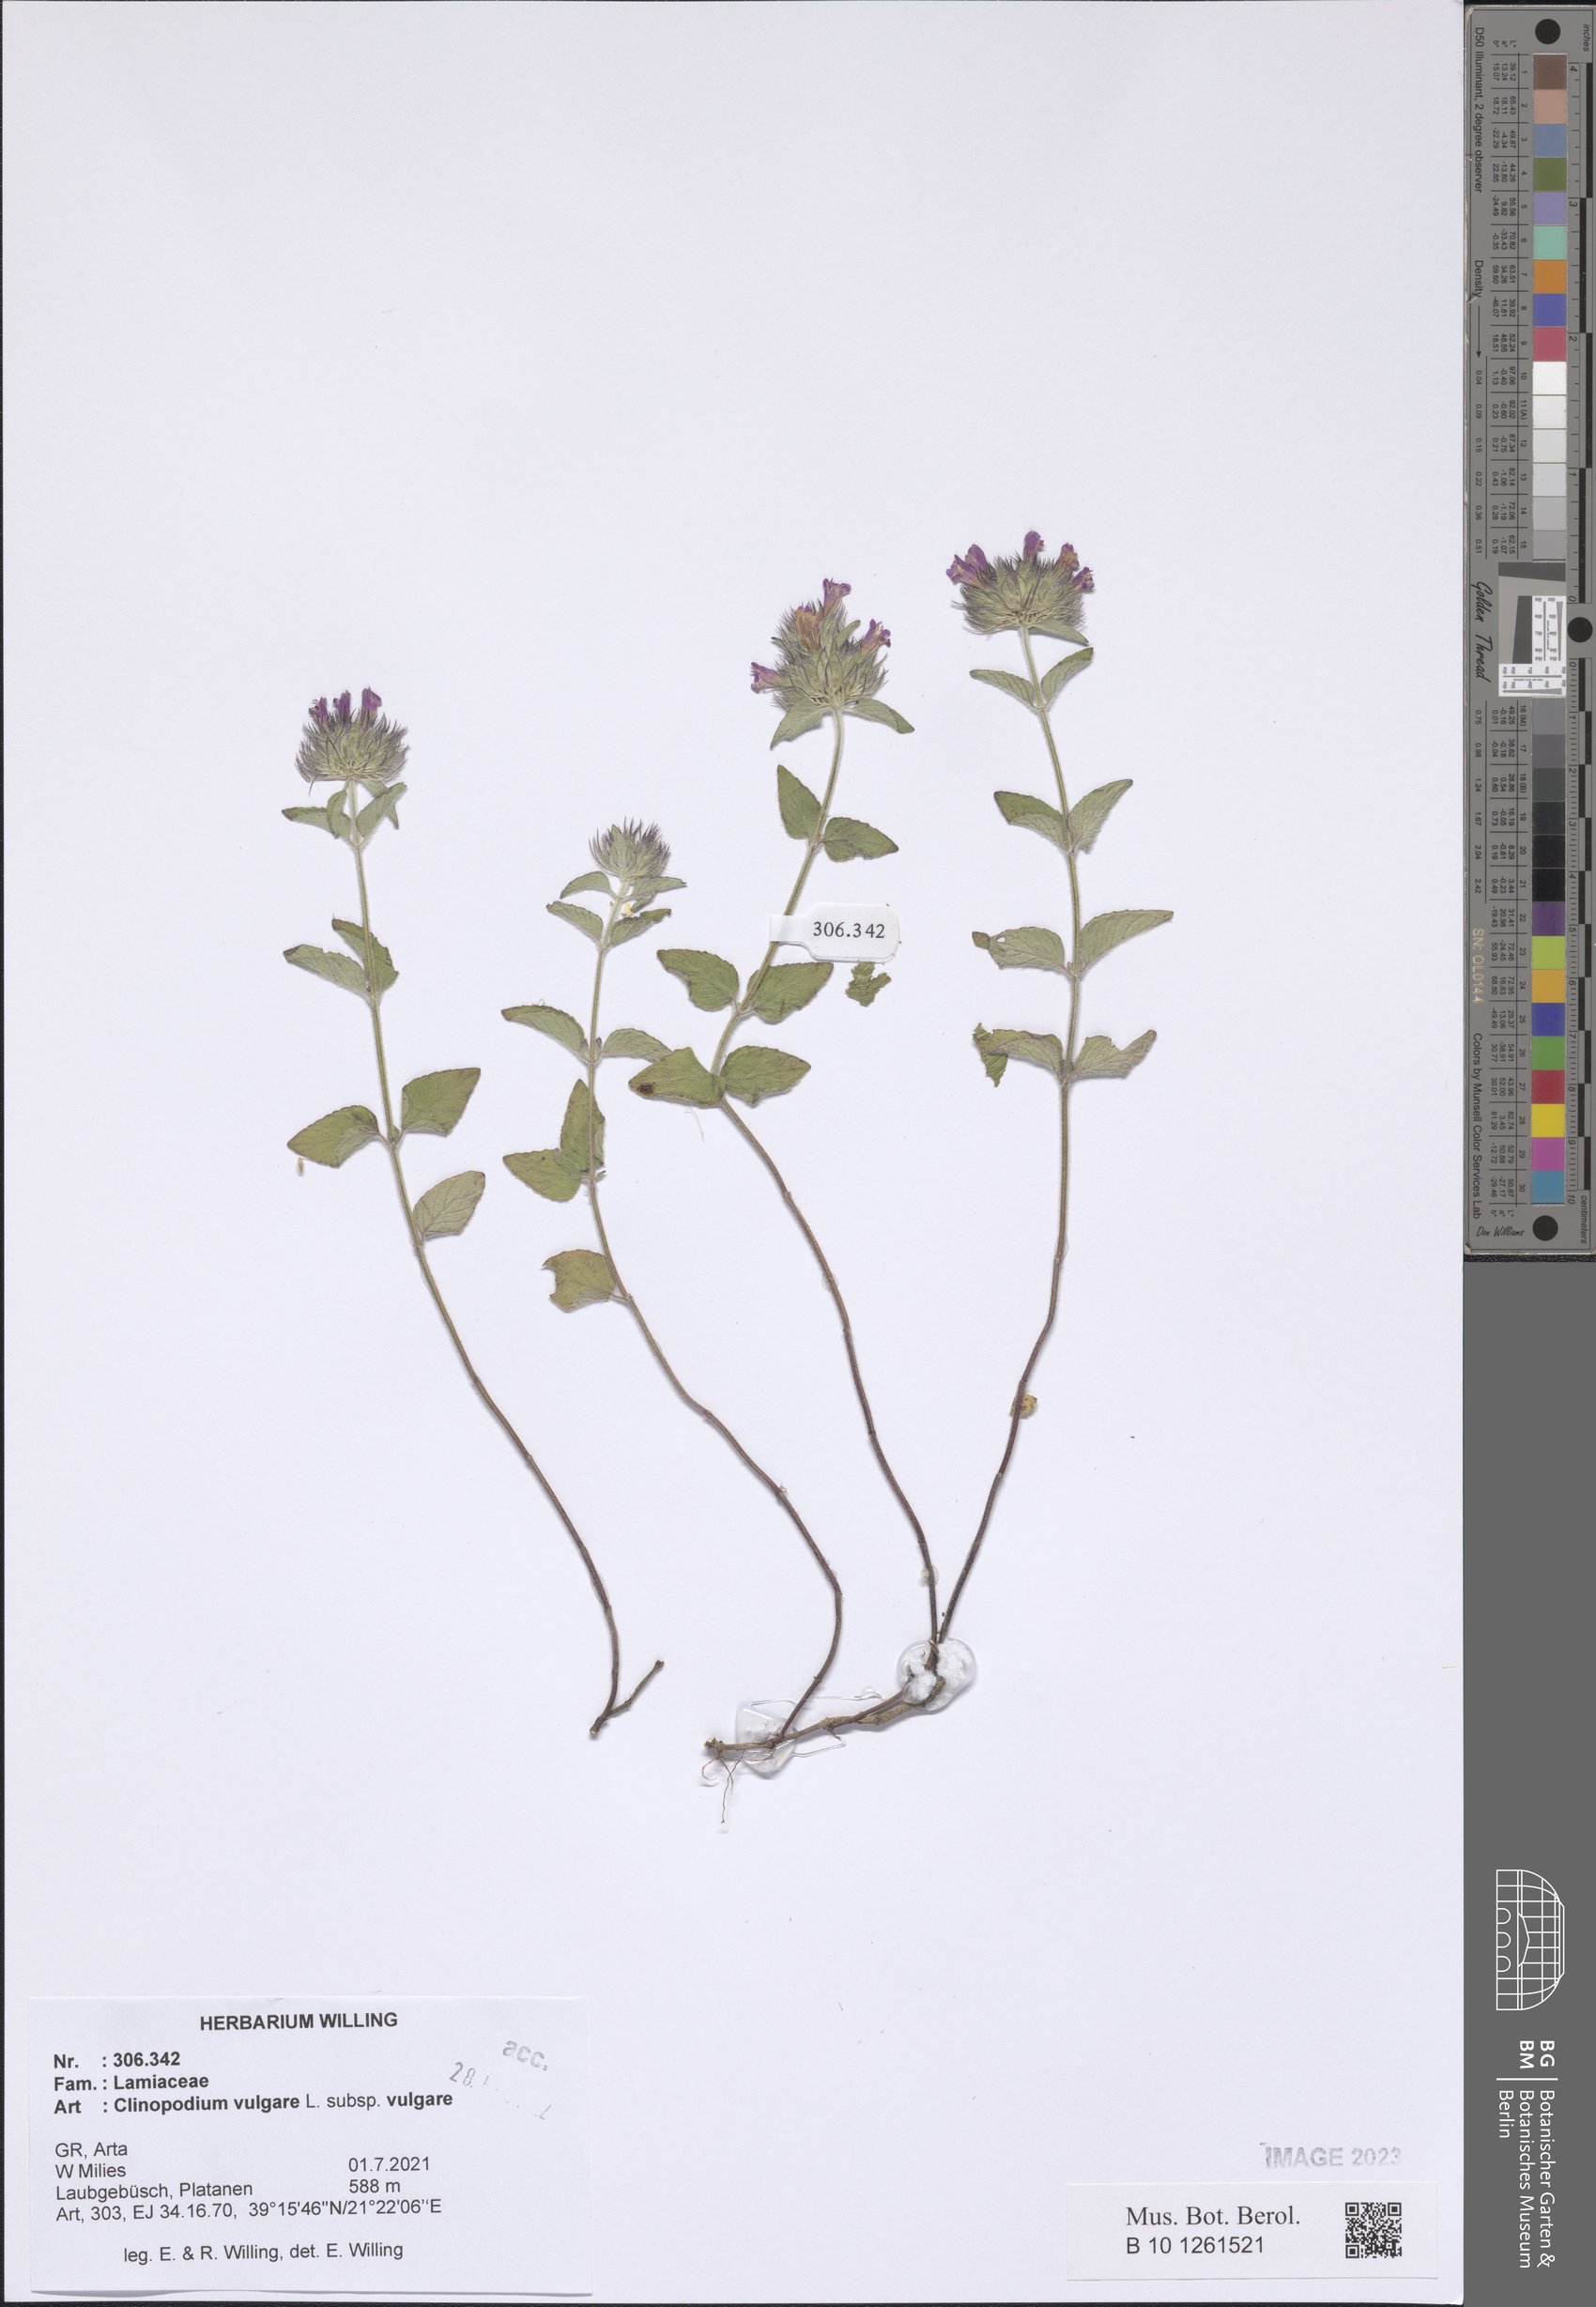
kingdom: Plantae
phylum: Tracheophyta
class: Magnoliopsida
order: Lamiales
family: Lamiaceae
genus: Clinopodium
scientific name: Clinopodium vulgare
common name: Wild basil
